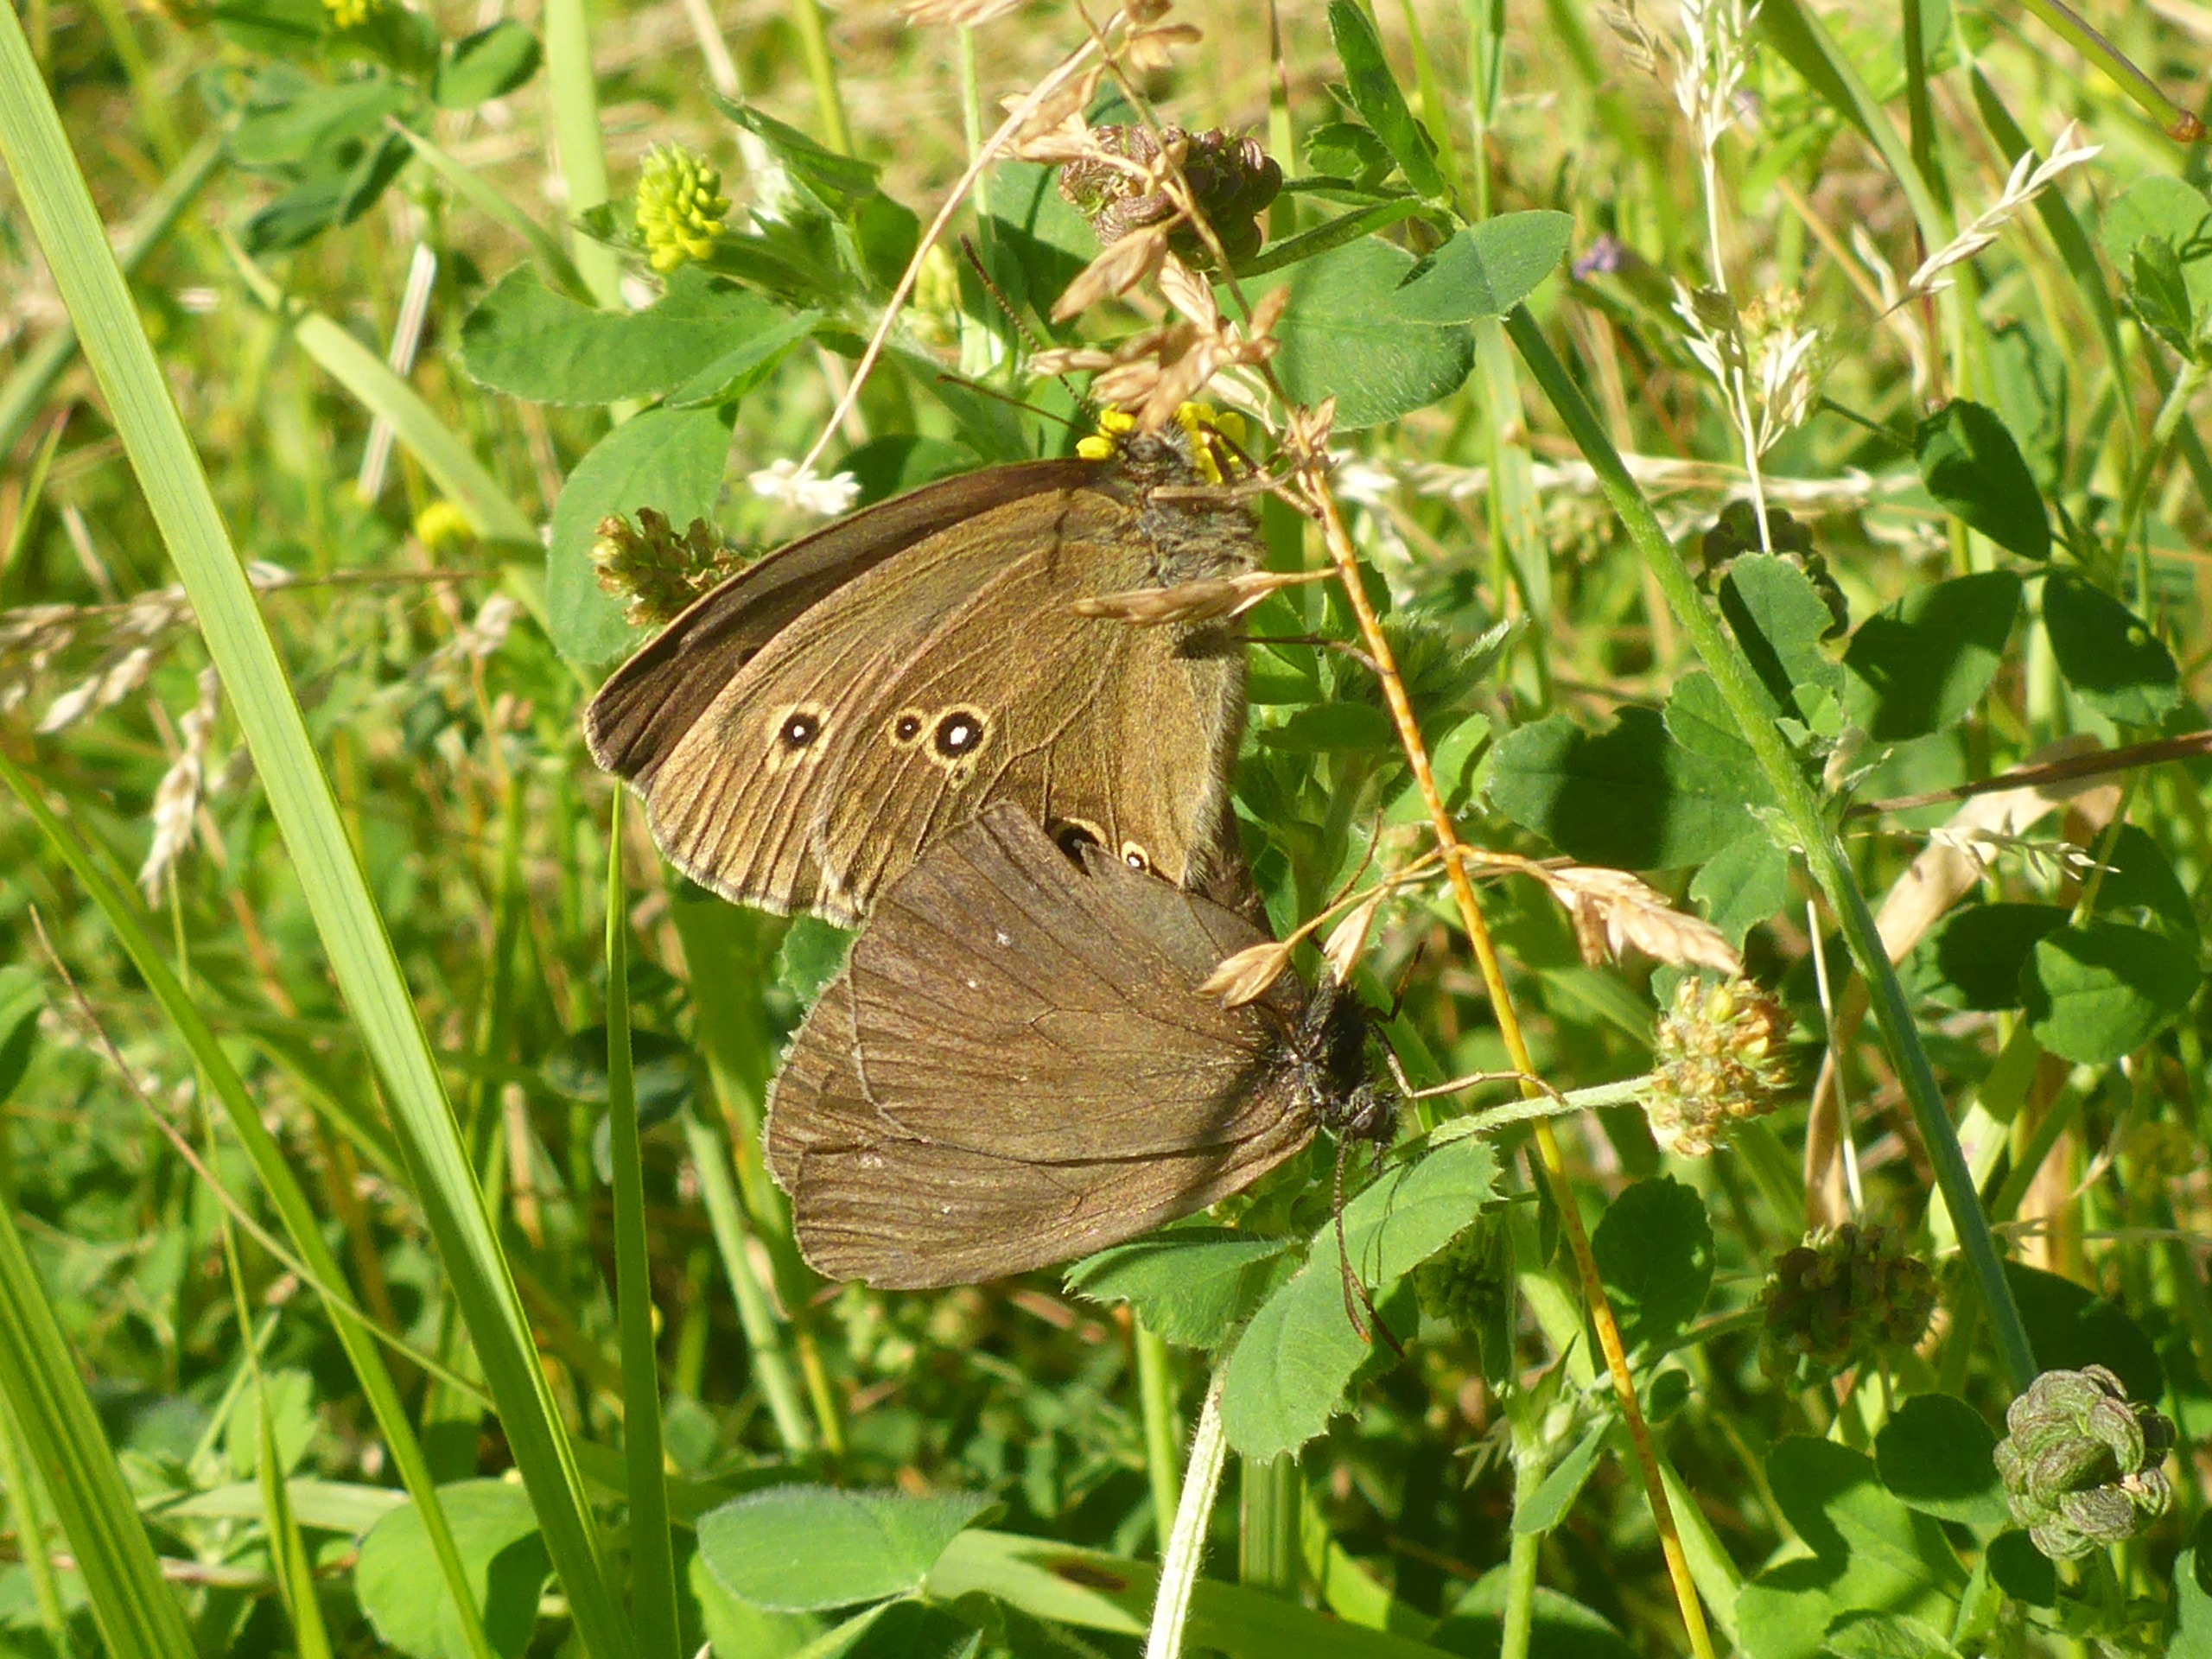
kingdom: Animalia
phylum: Arthropoda
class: Insecta
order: Lepidoptera
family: Nymphalidae
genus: Aphantopus
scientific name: Aphantopus hyperantus
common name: Engrandøje
